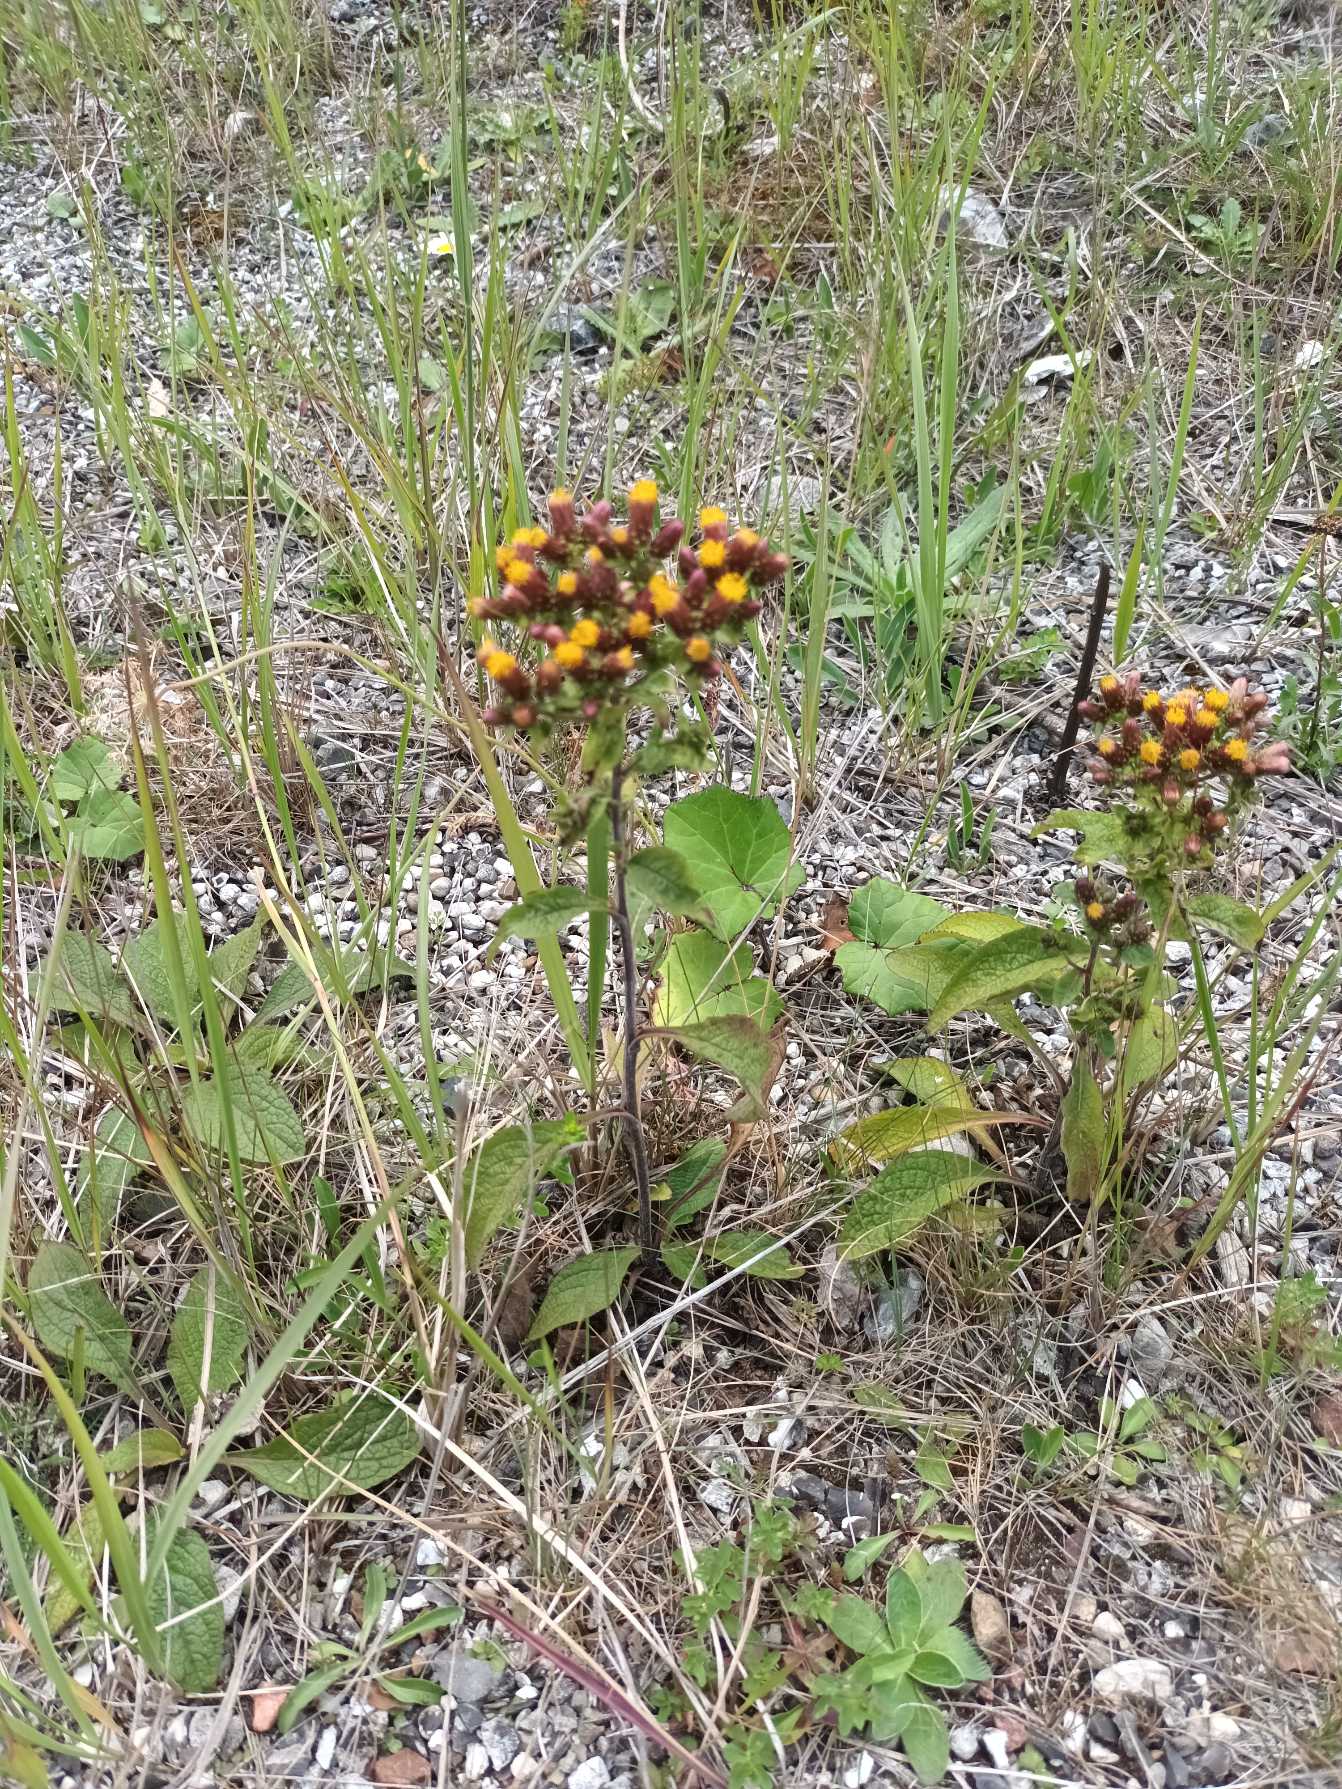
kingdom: Plantae
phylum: Tracheophyta
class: Magnoliopsida
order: Asterales
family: Asteraceae
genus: Pentanema
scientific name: Pentanema squarrosum
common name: Trekløft-alant
